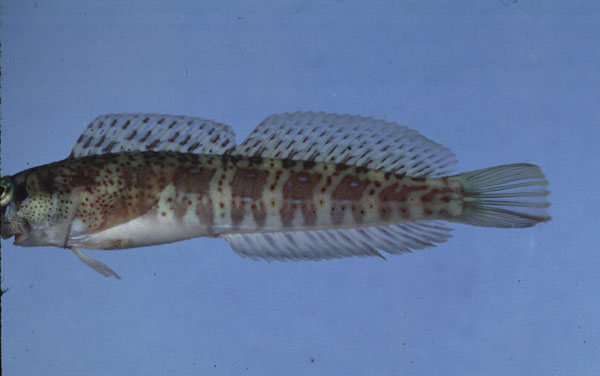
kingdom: Animalia
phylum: Chordata
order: Perciformes
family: Blenniidae
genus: Blenniella
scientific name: Blenniella periophthalmus
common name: Blue-dashed rockskipper
